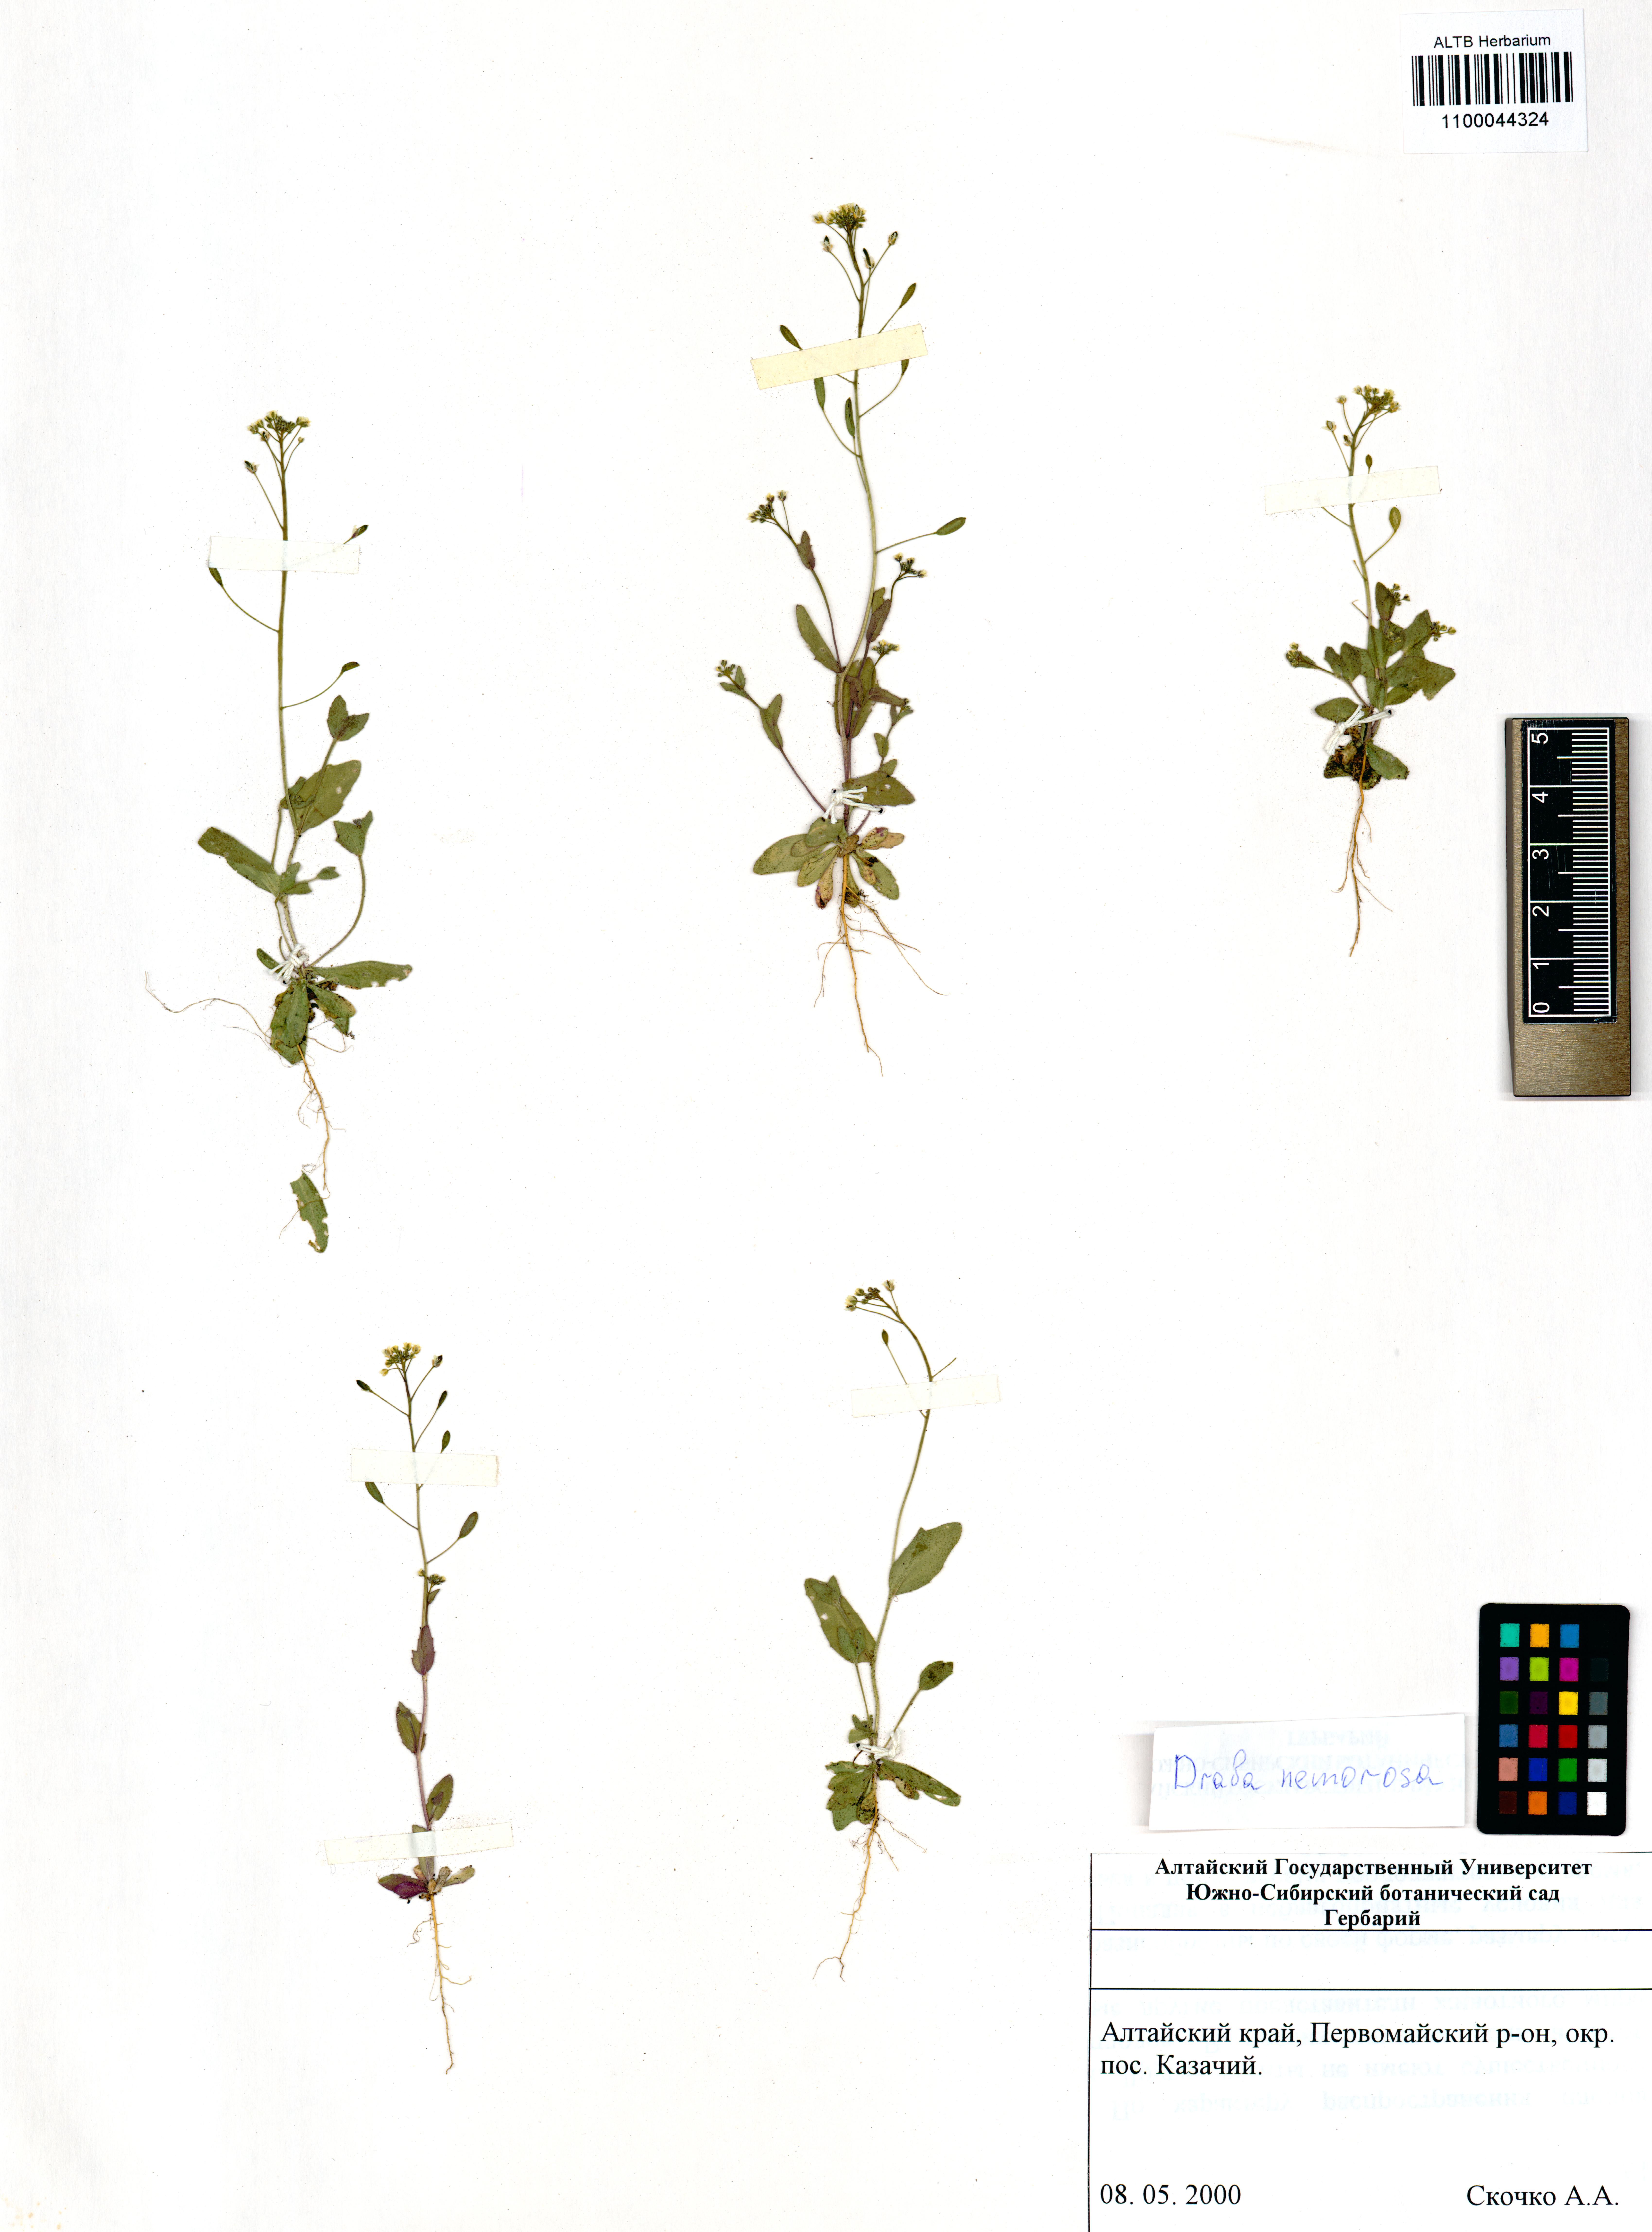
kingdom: Plantae
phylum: Tracheophyta
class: Magnoliopsida
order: Brassicales
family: Brassicaceae
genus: Draba
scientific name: Draba nemorosa
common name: Wood whitlow-grass
